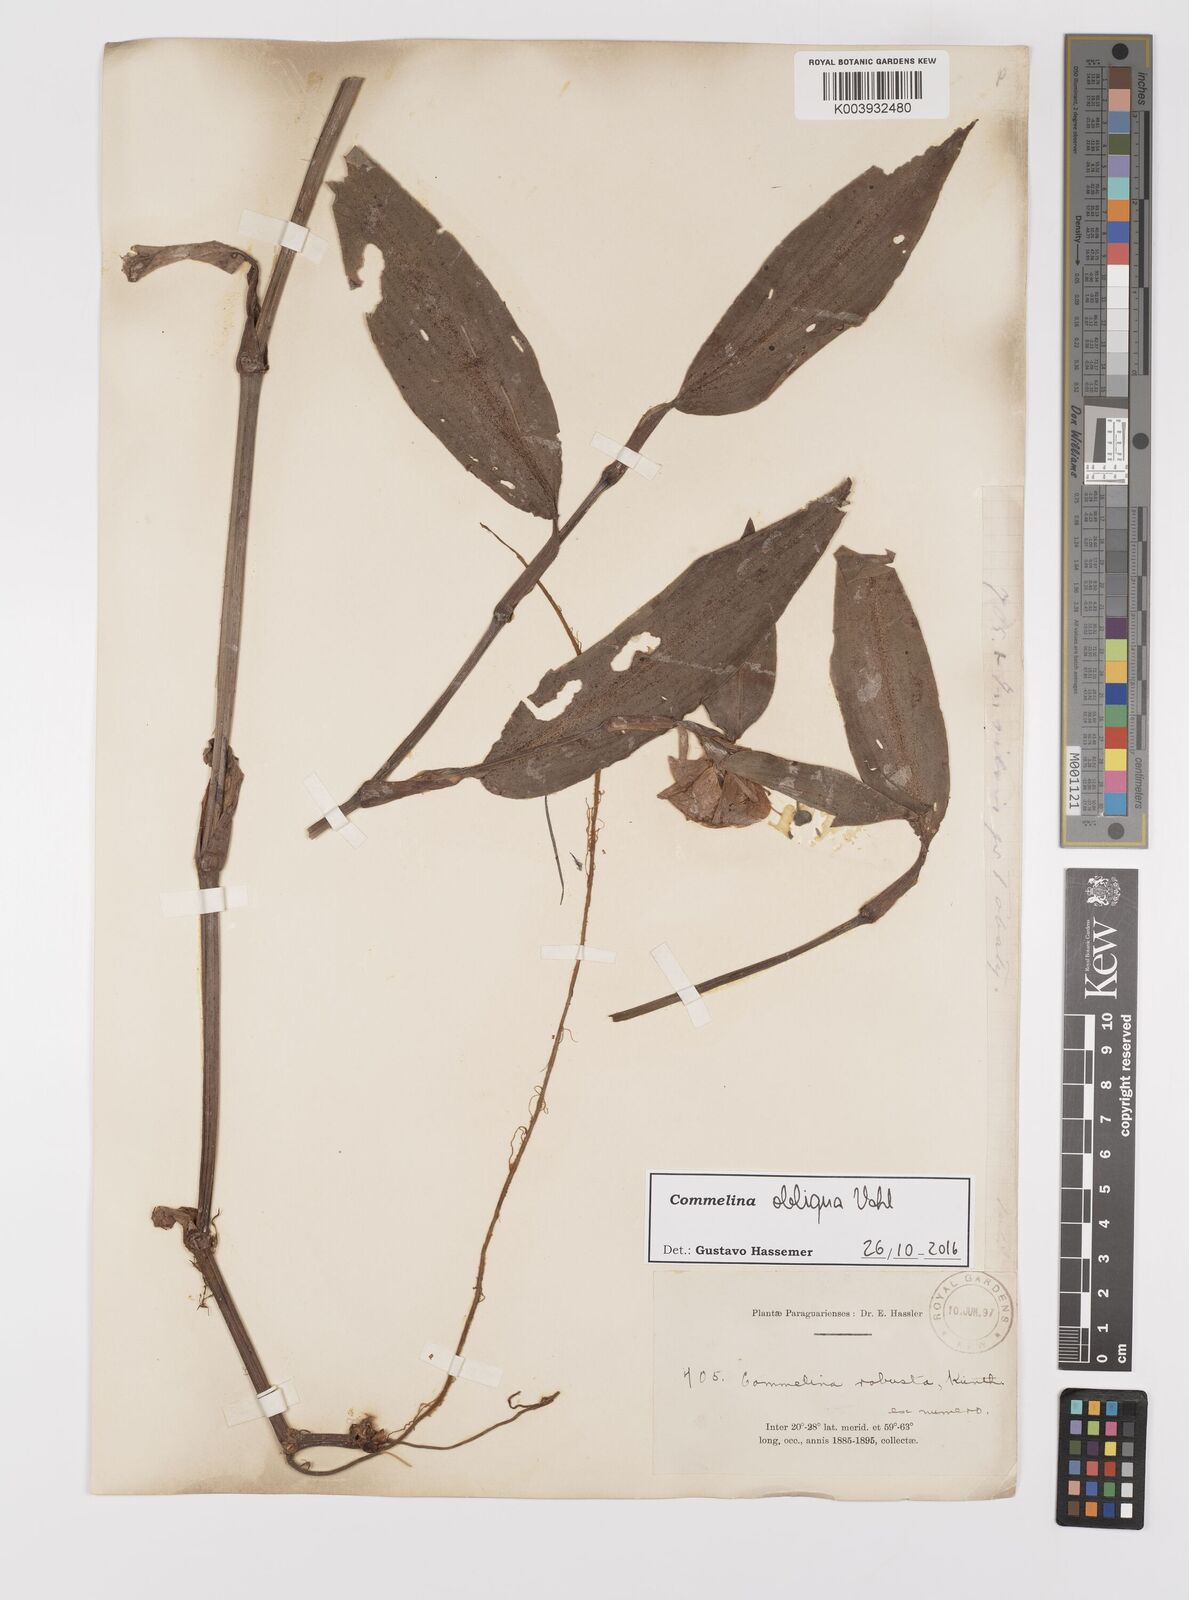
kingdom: Plantae
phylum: Tracheophyta
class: Liliopsida
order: Commelinales
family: Commelinaceae
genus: Commelina
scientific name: Commelina obliqua
